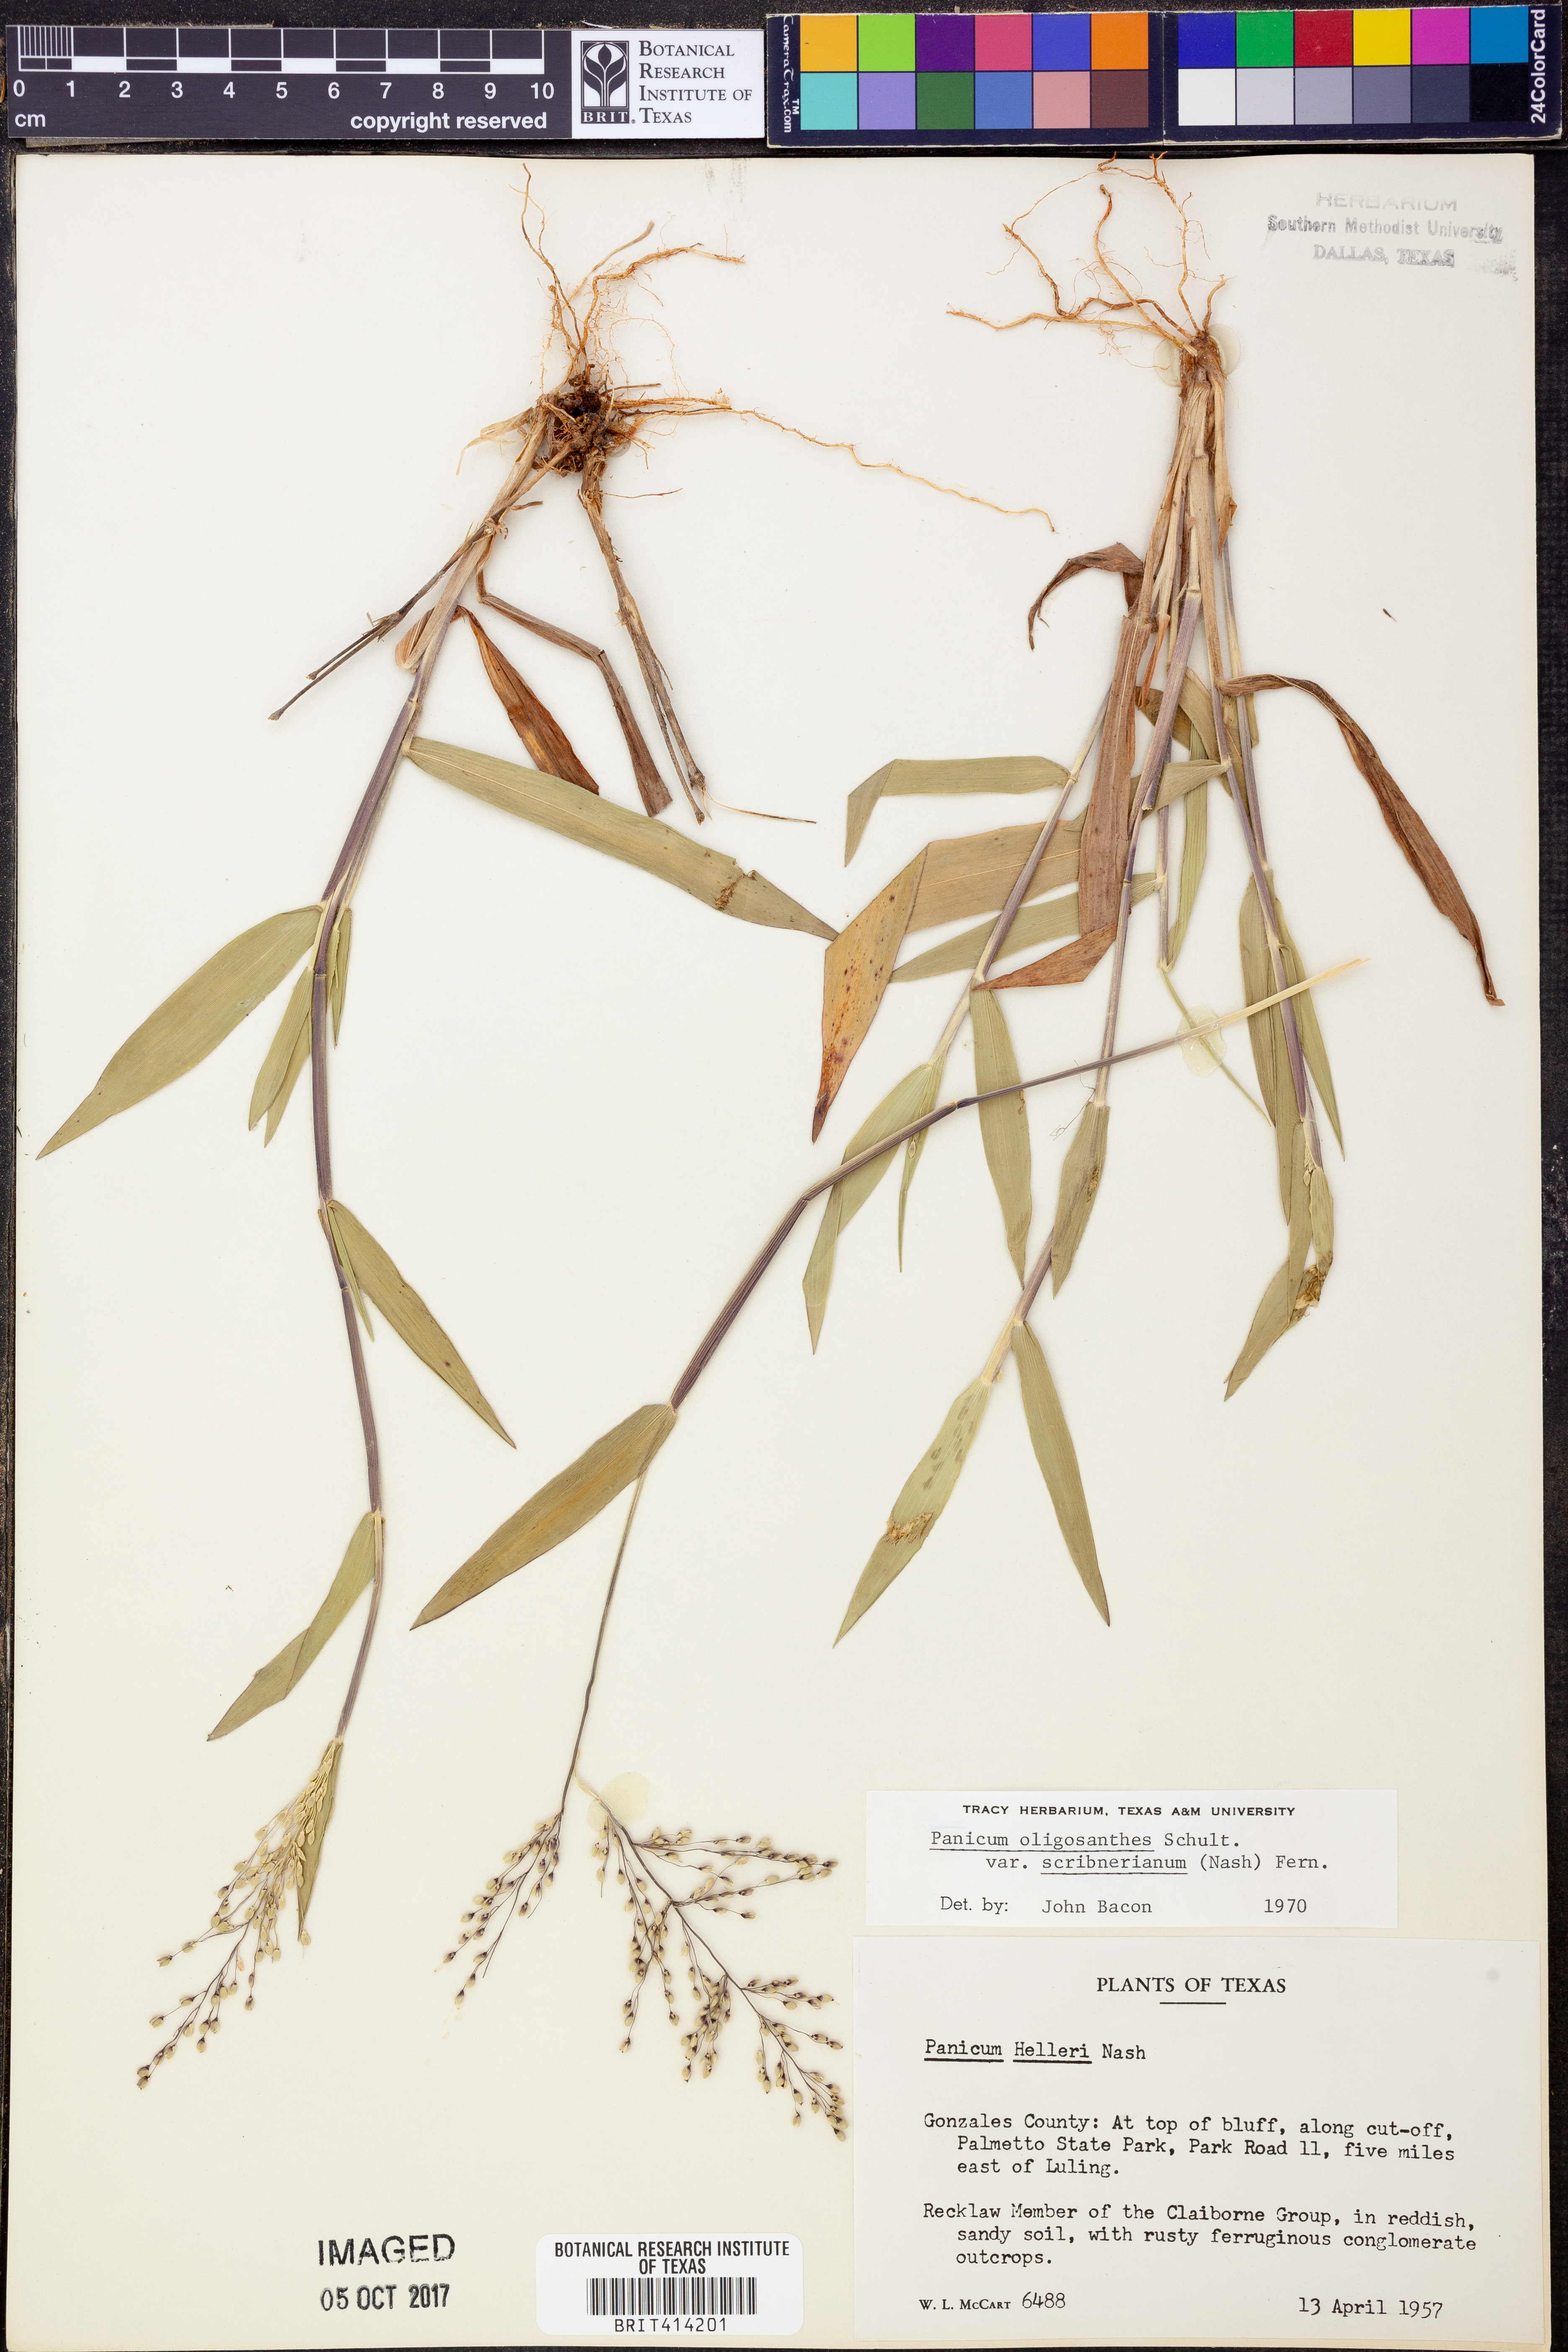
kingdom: Plantae
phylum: Tracheophyta
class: Liliopsida
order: Poales
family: Poaceae
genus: Dichanthelium
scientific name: Dichanthelium scribnerianum
